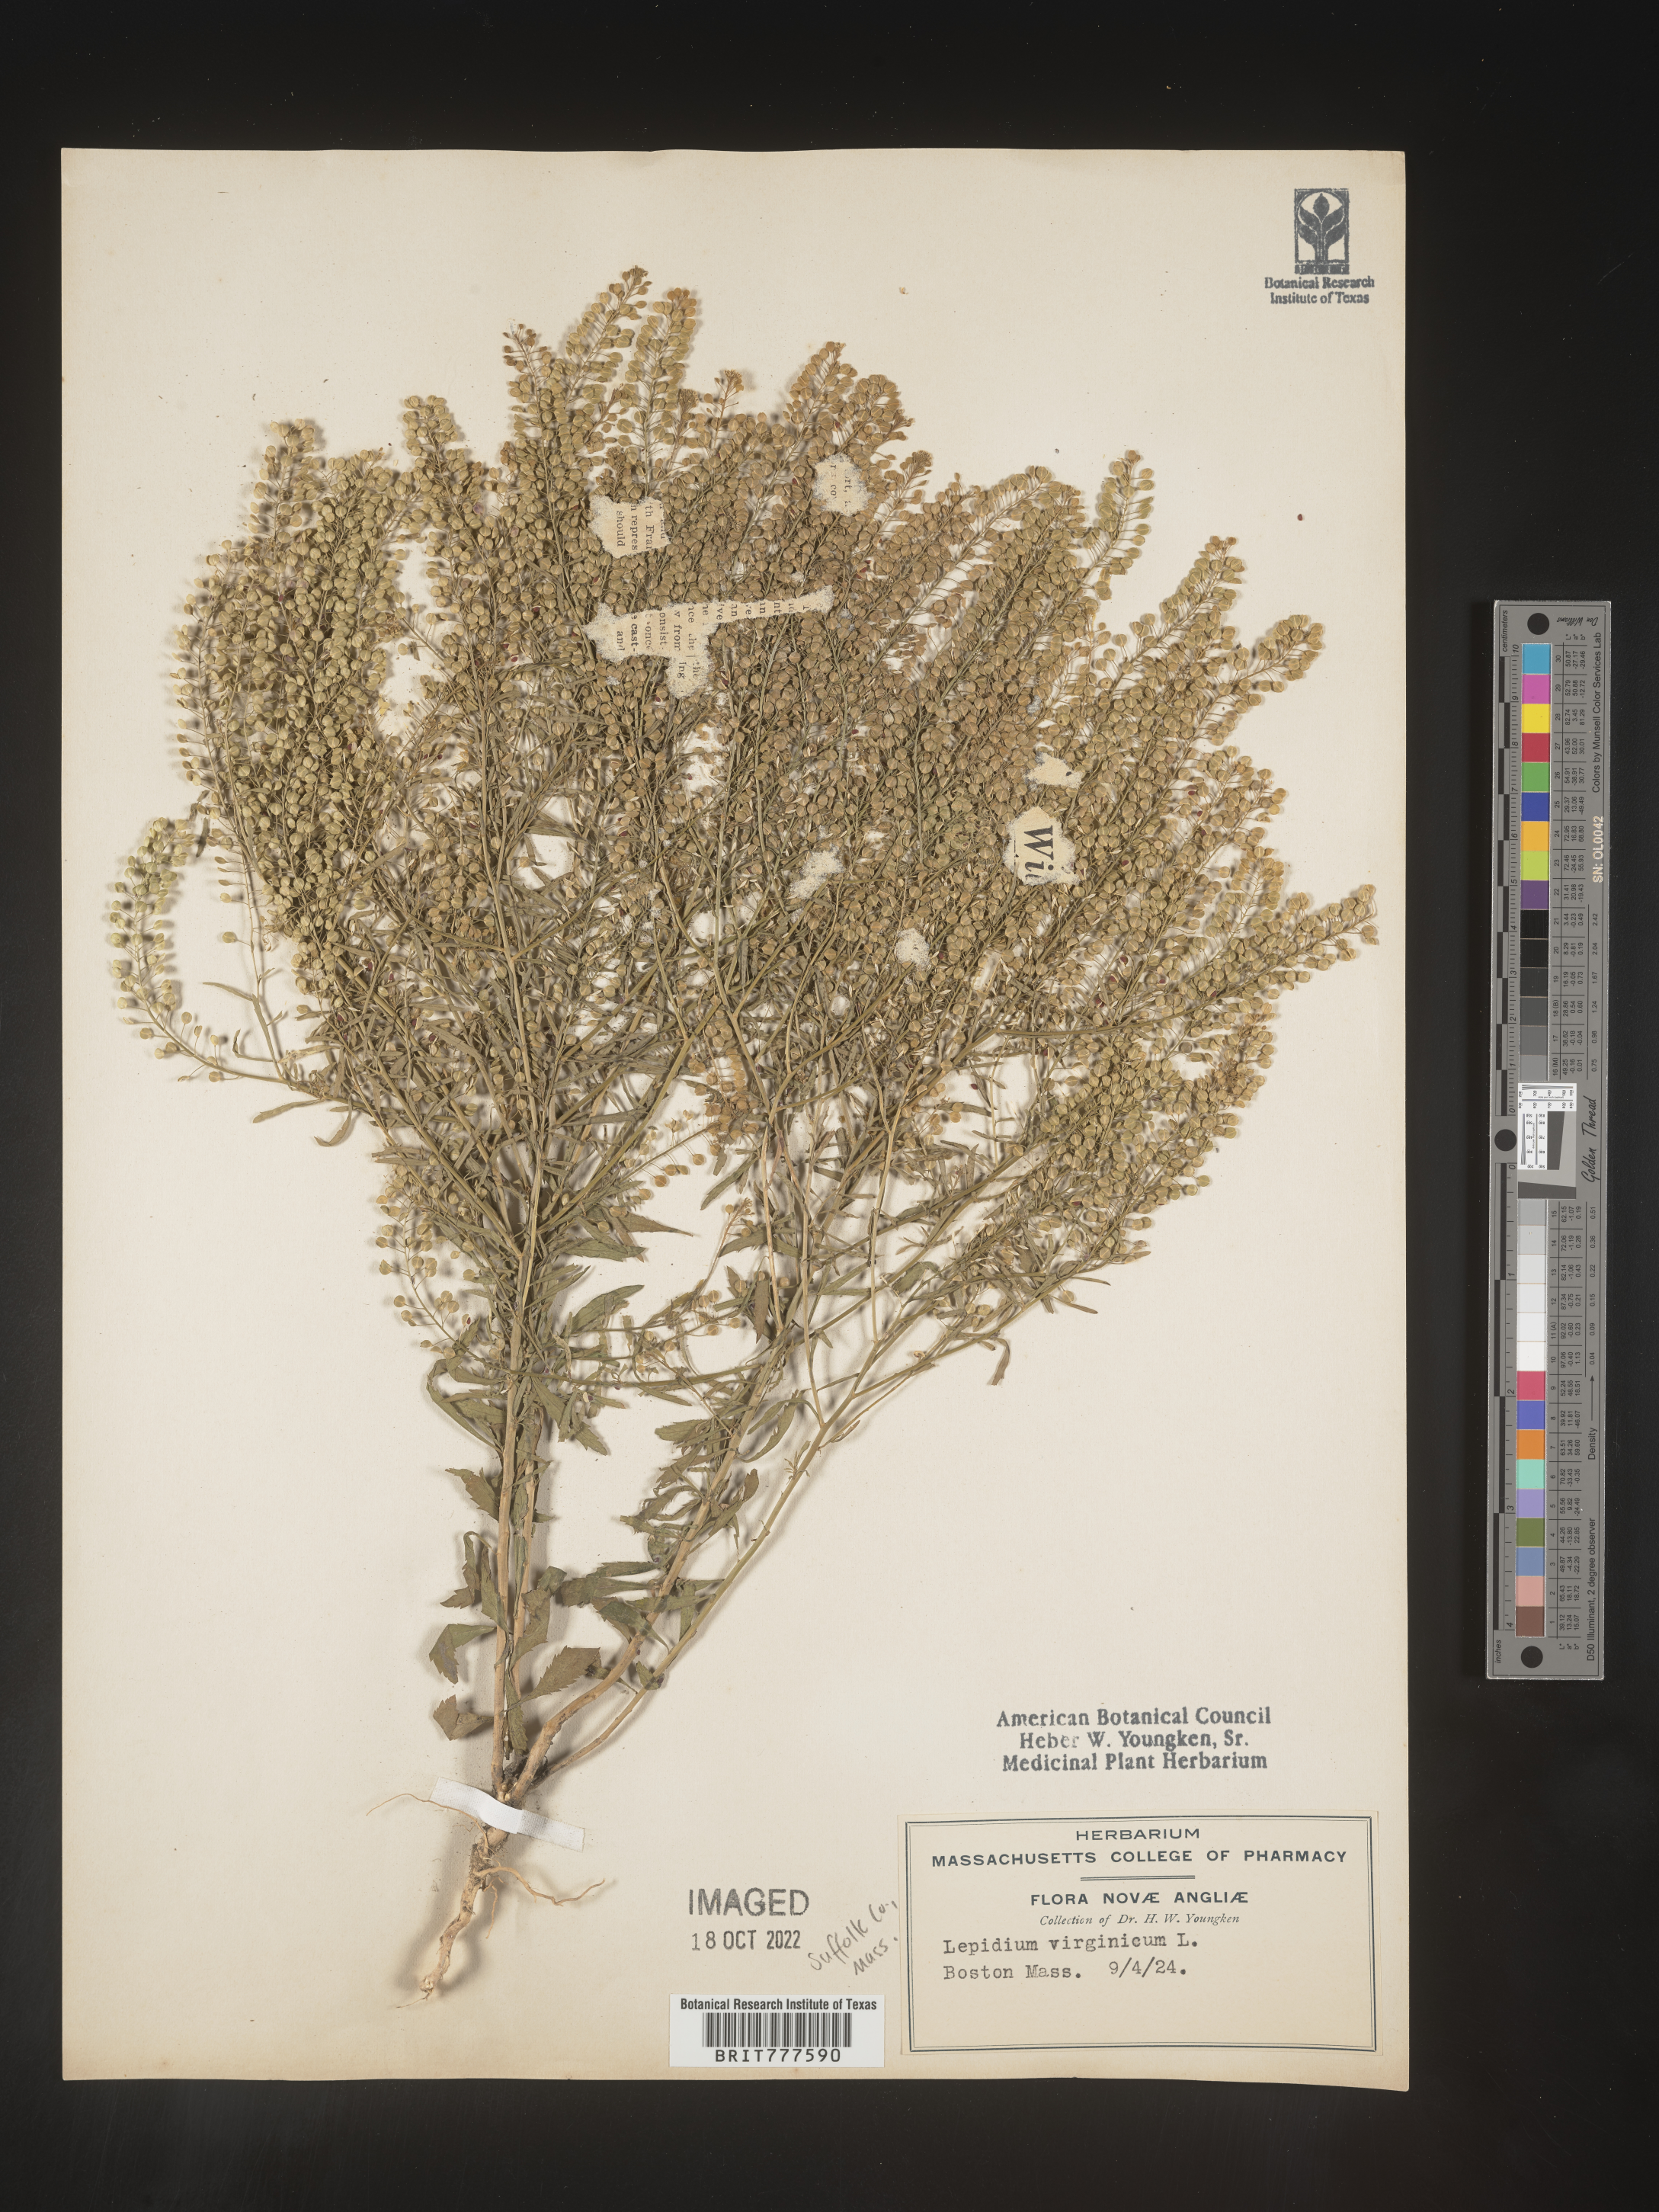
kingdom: Plantae
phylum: Tracheophyta
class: Magnoliopsida
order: Brassicales
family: Brassicaceae
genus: Lepidium
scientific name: Lepidium virginicum
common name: Least pepperwort
